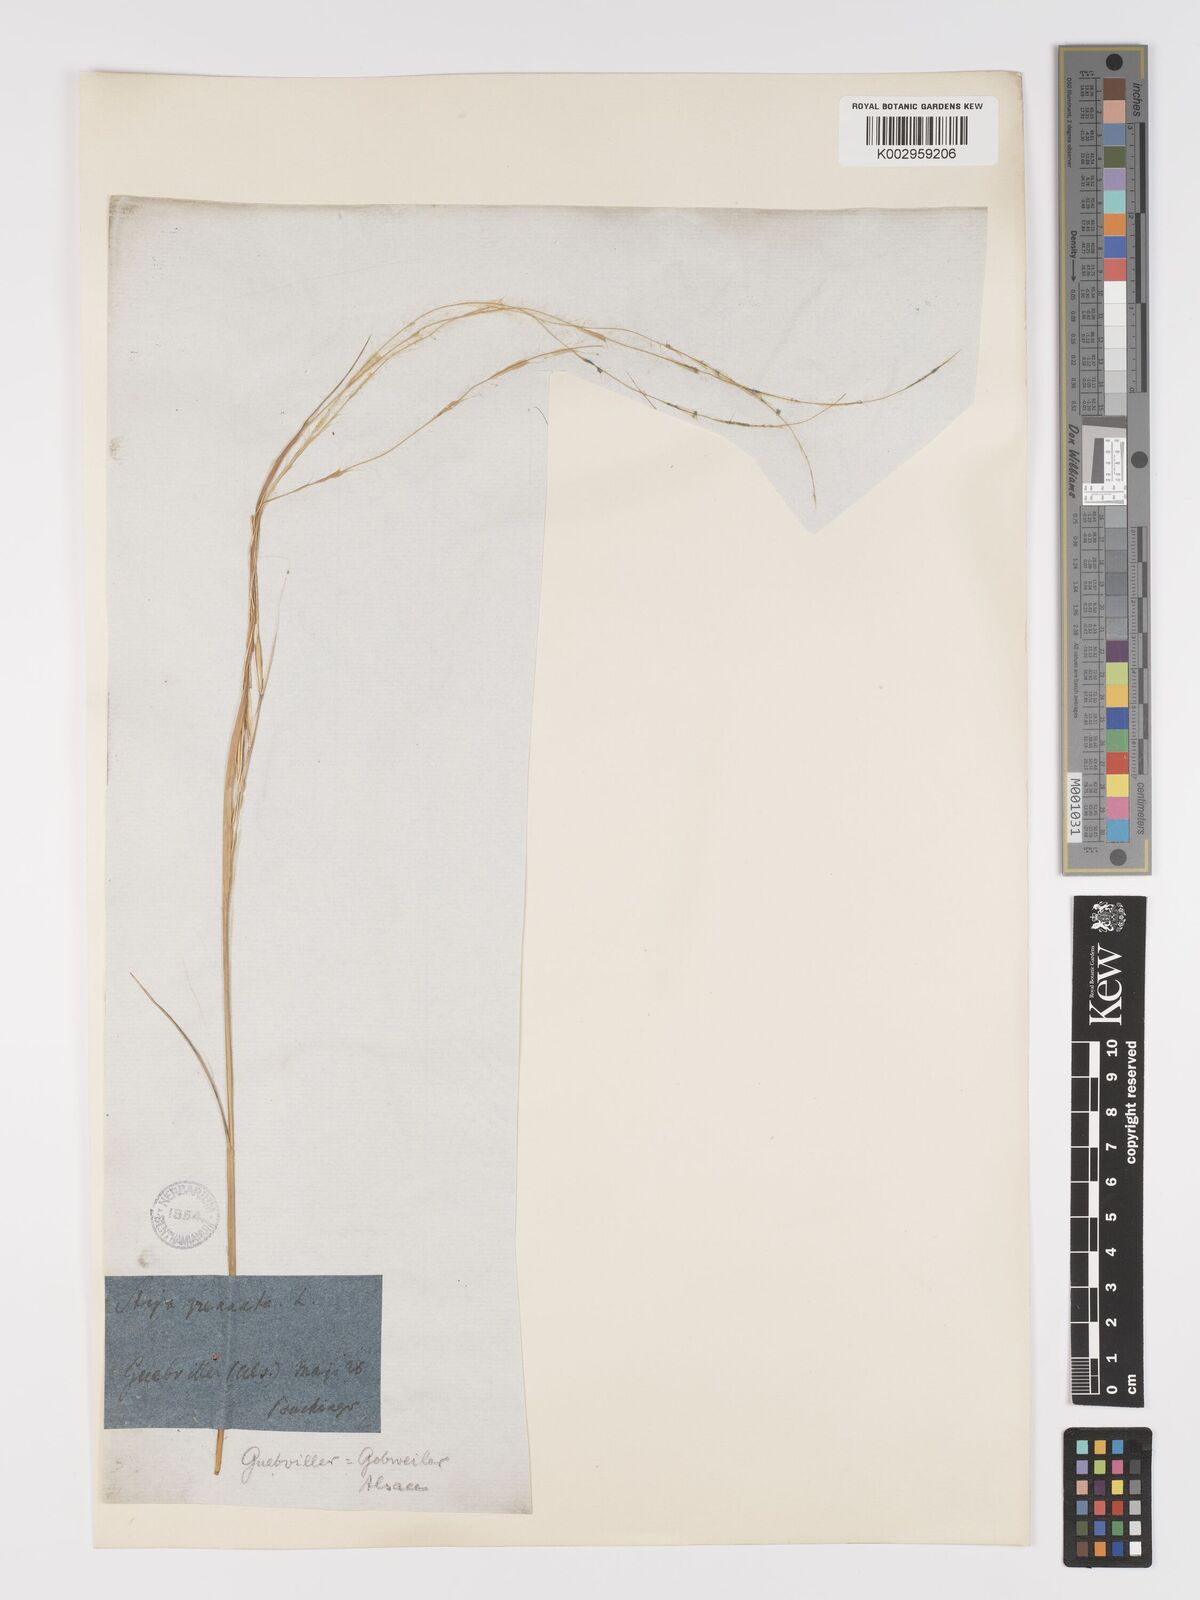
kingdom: Plantae
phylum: Tracheophyta
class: Liliopsida
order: Poales
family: Poaceae
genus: Stipa
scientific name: Stipa pennata
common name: European feather grass
